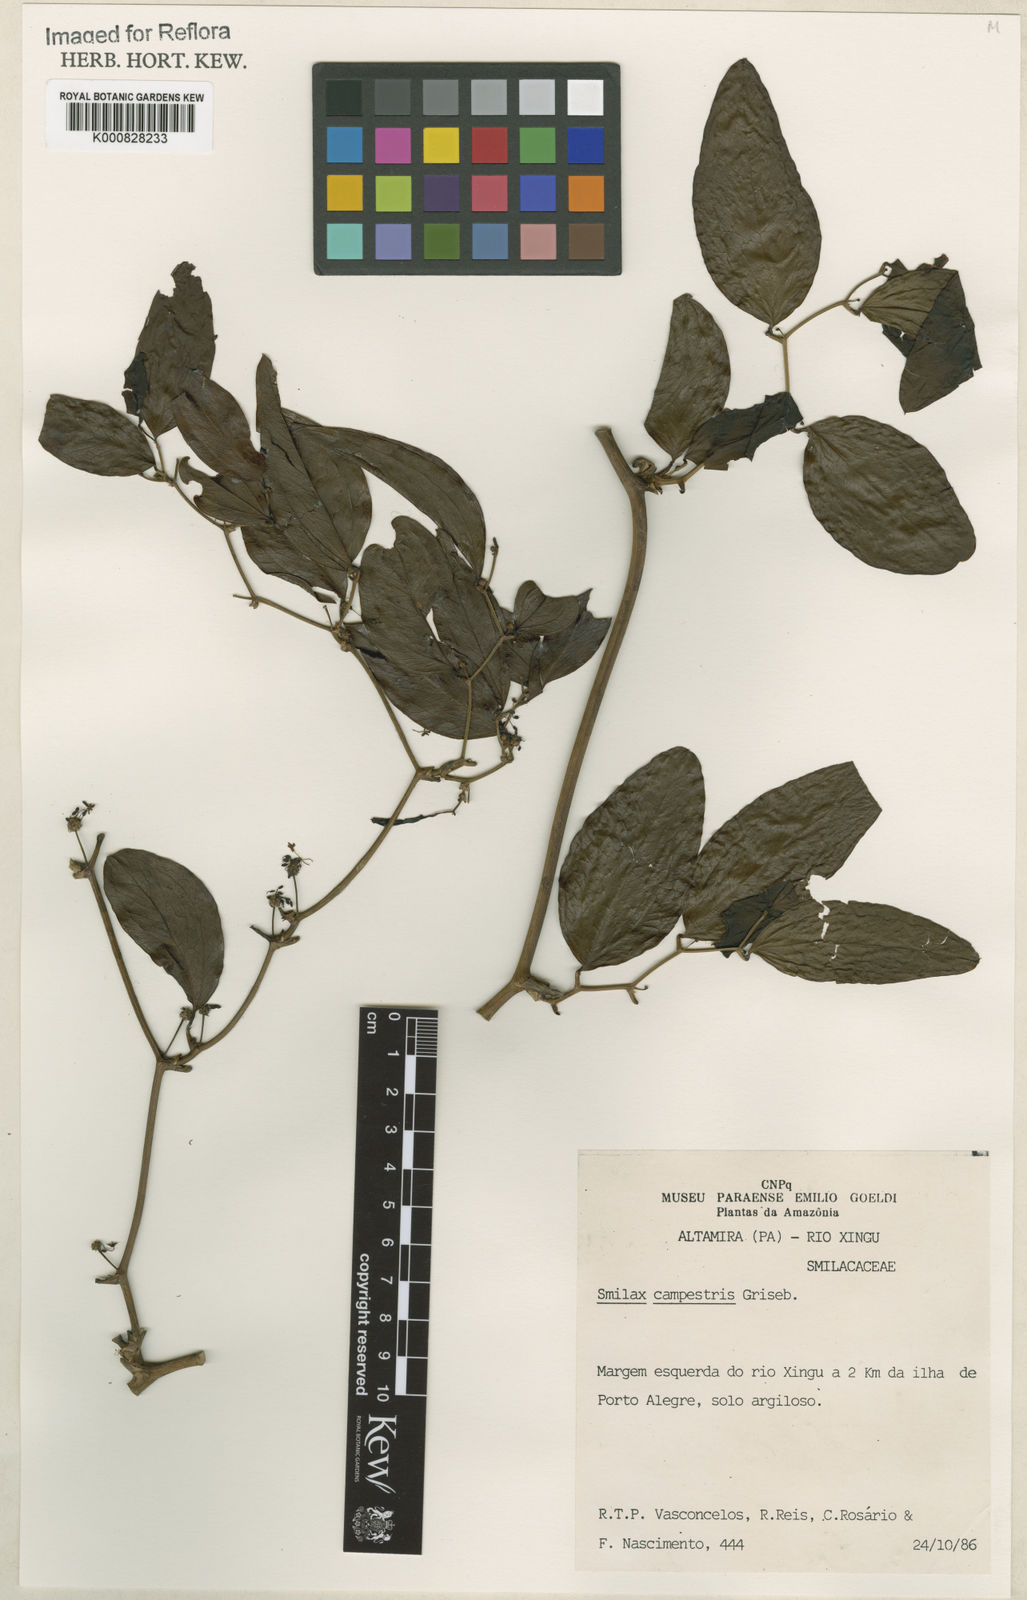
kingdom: Plantae
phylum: Tracheophyta
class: Liliopsida
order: Liliales
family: Smilacaceae
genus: Smilax
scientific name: Smilax campestris
